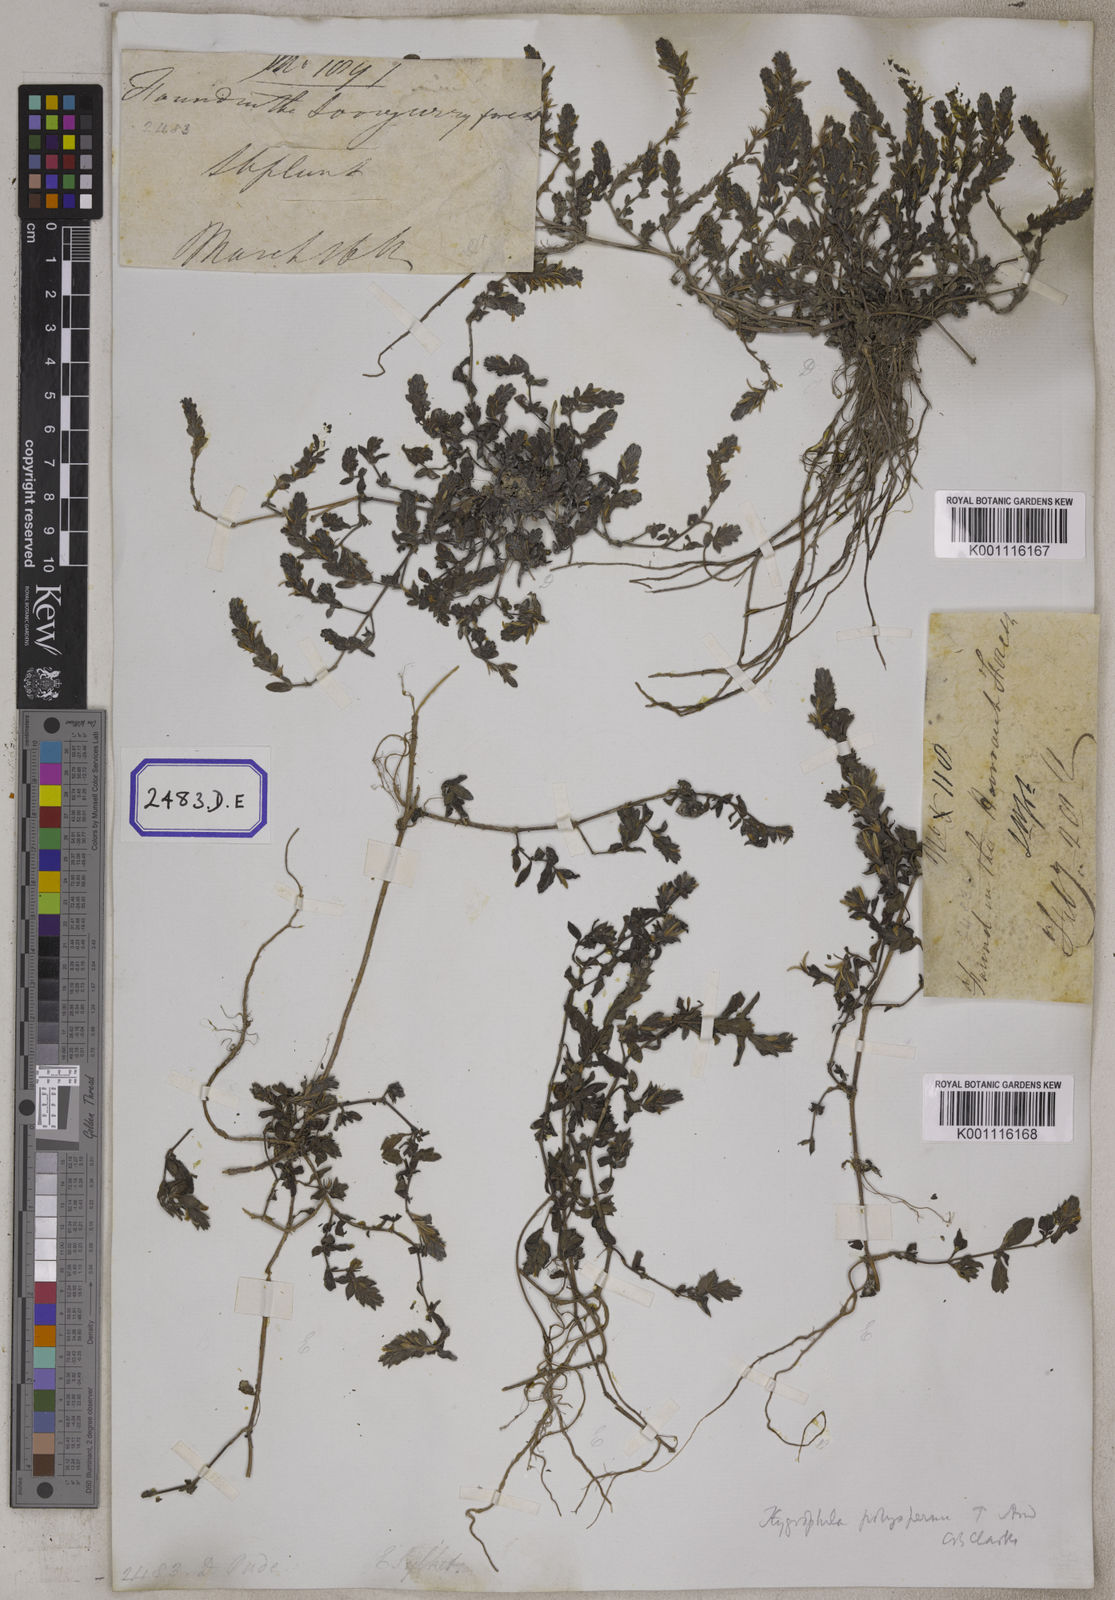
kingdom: Plantae
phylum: Tracheophyta
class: Magnoliopsida
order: Lamiales
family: Acanthaceae
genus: Hygrophila
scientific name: Hygrophila polysperma
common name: Indian swampweed
